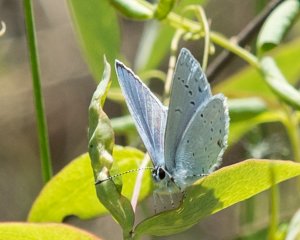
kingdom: Animalia
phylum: Arthropoda
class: Insecta
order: Lepidoptera
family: Lycaenidae
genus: Plebejus
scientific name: Plebejus saepiolus
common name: Greenish Blue
